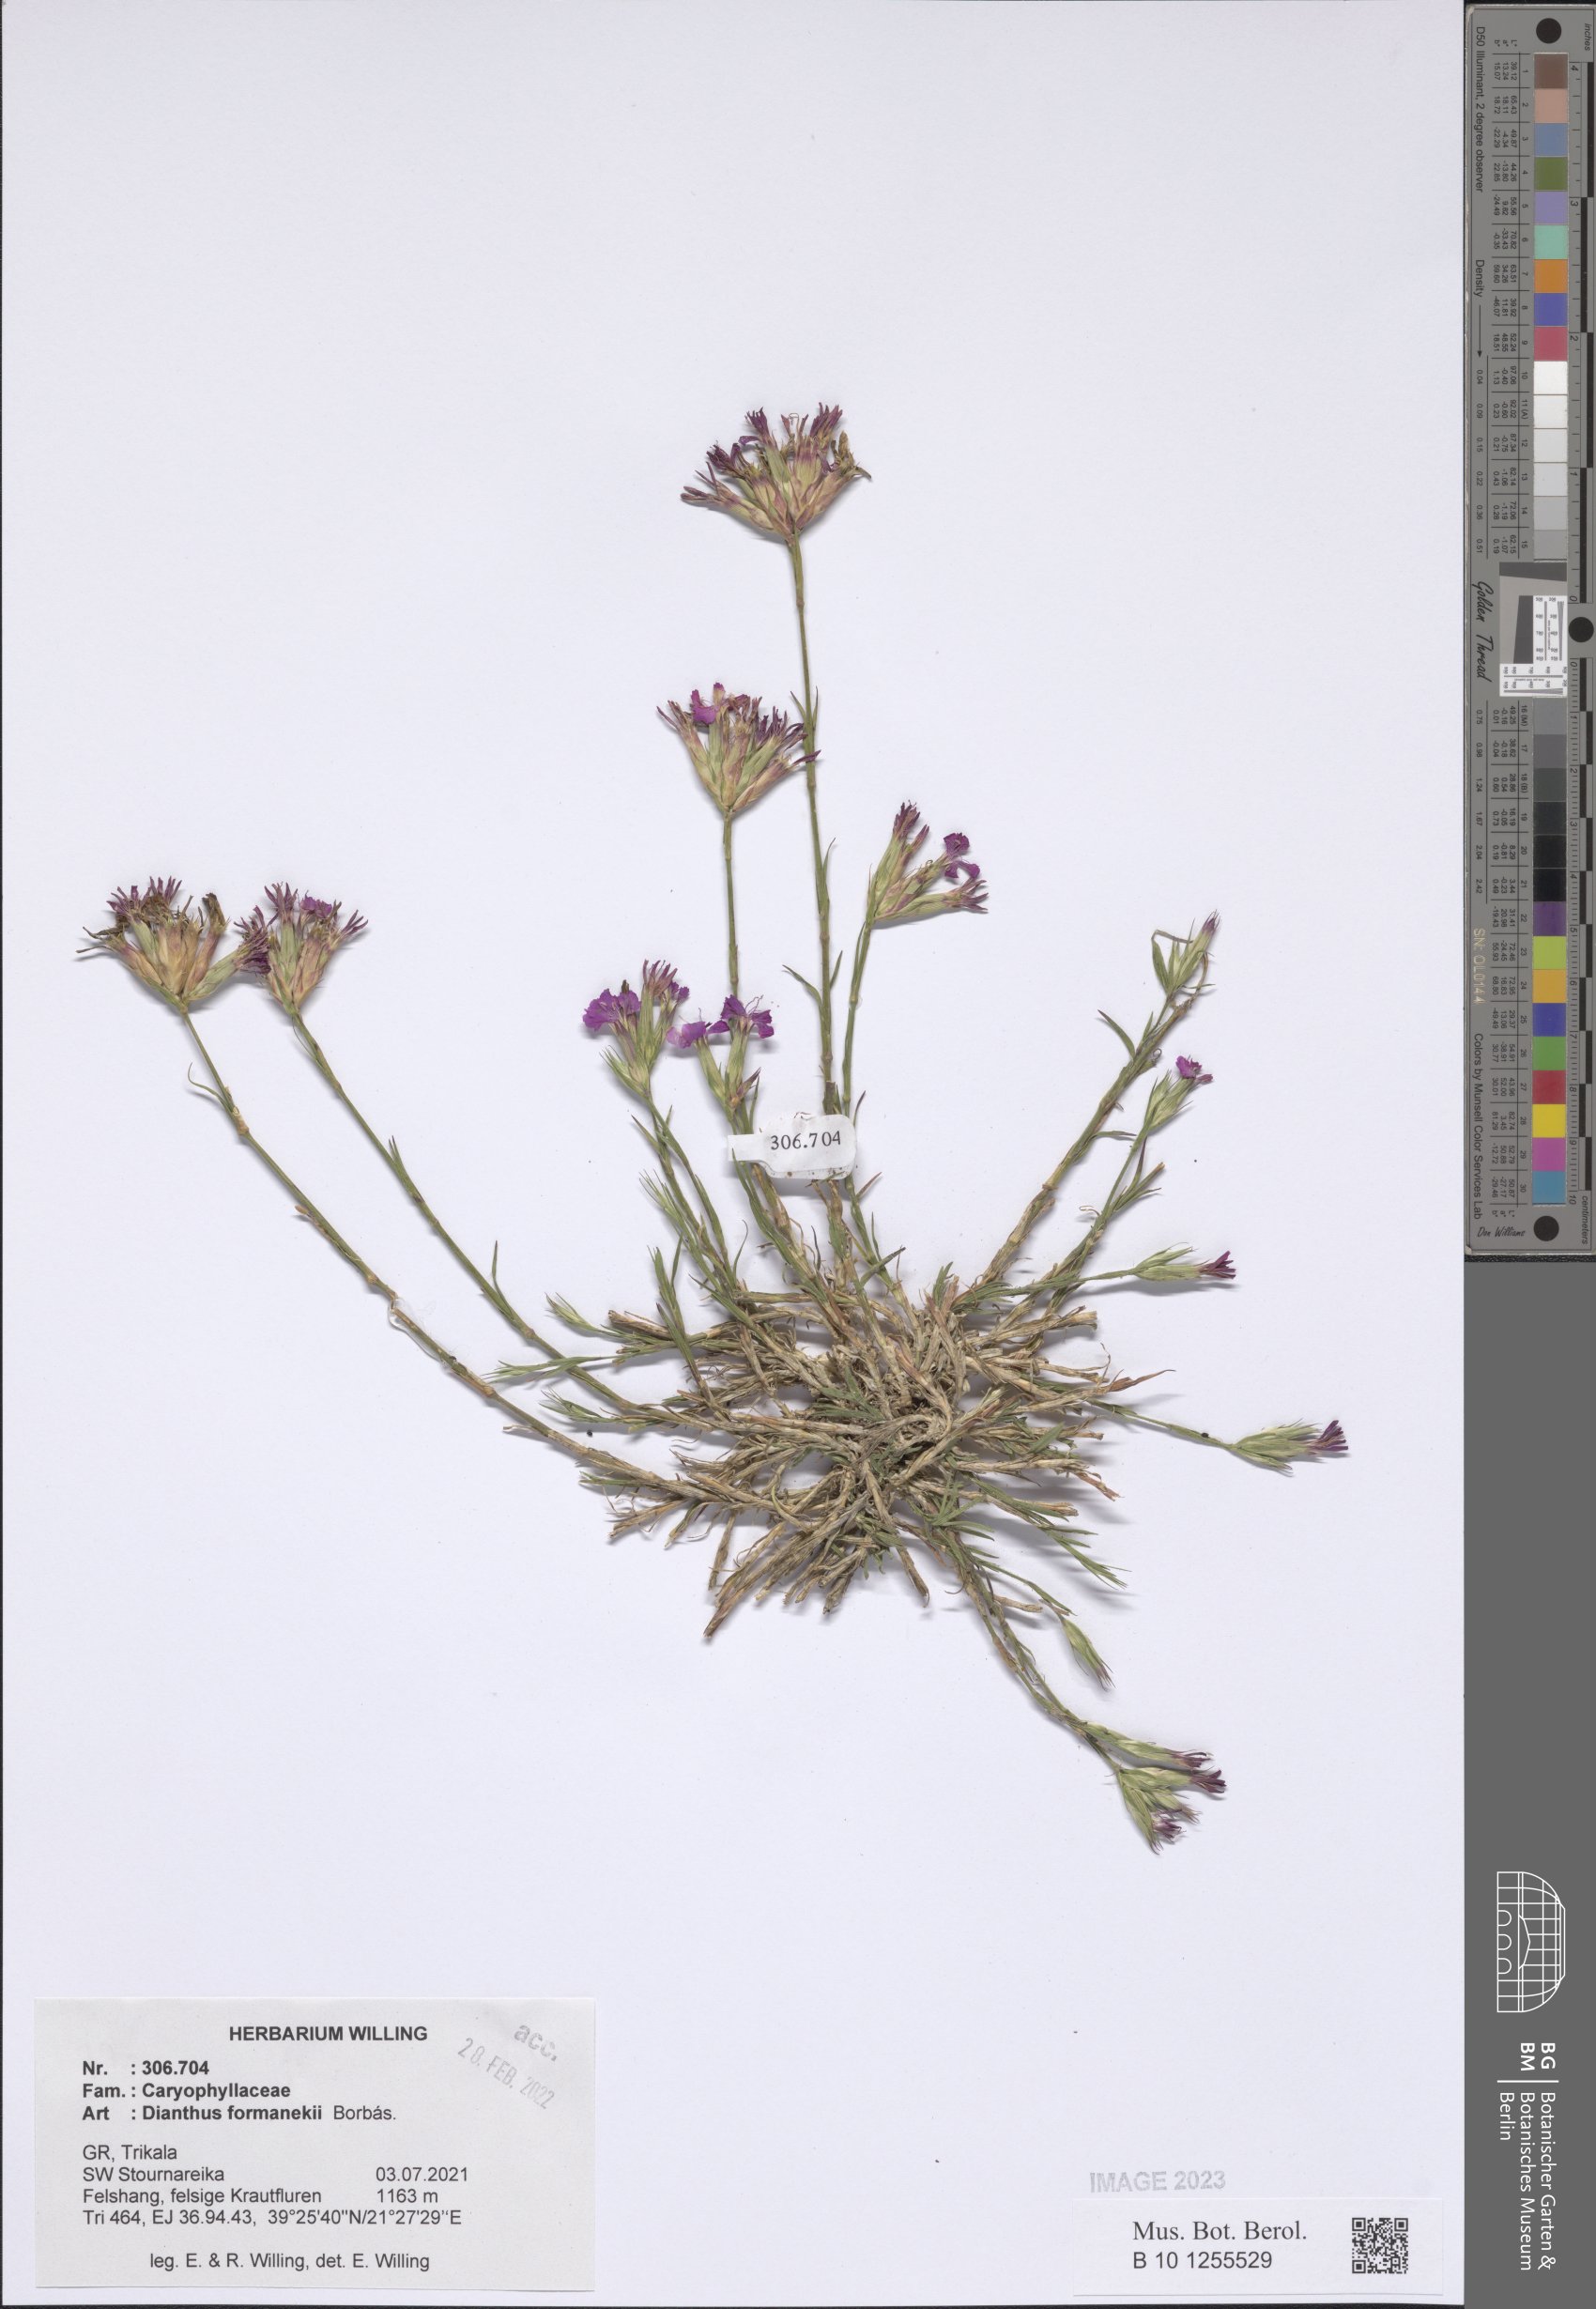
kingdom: Plantae
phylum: Tracheophyta
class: Magnoliopsida
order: Caryophyllales
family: Caryophyllaceae
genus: Dianthus
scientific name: Dianthus formanekii
